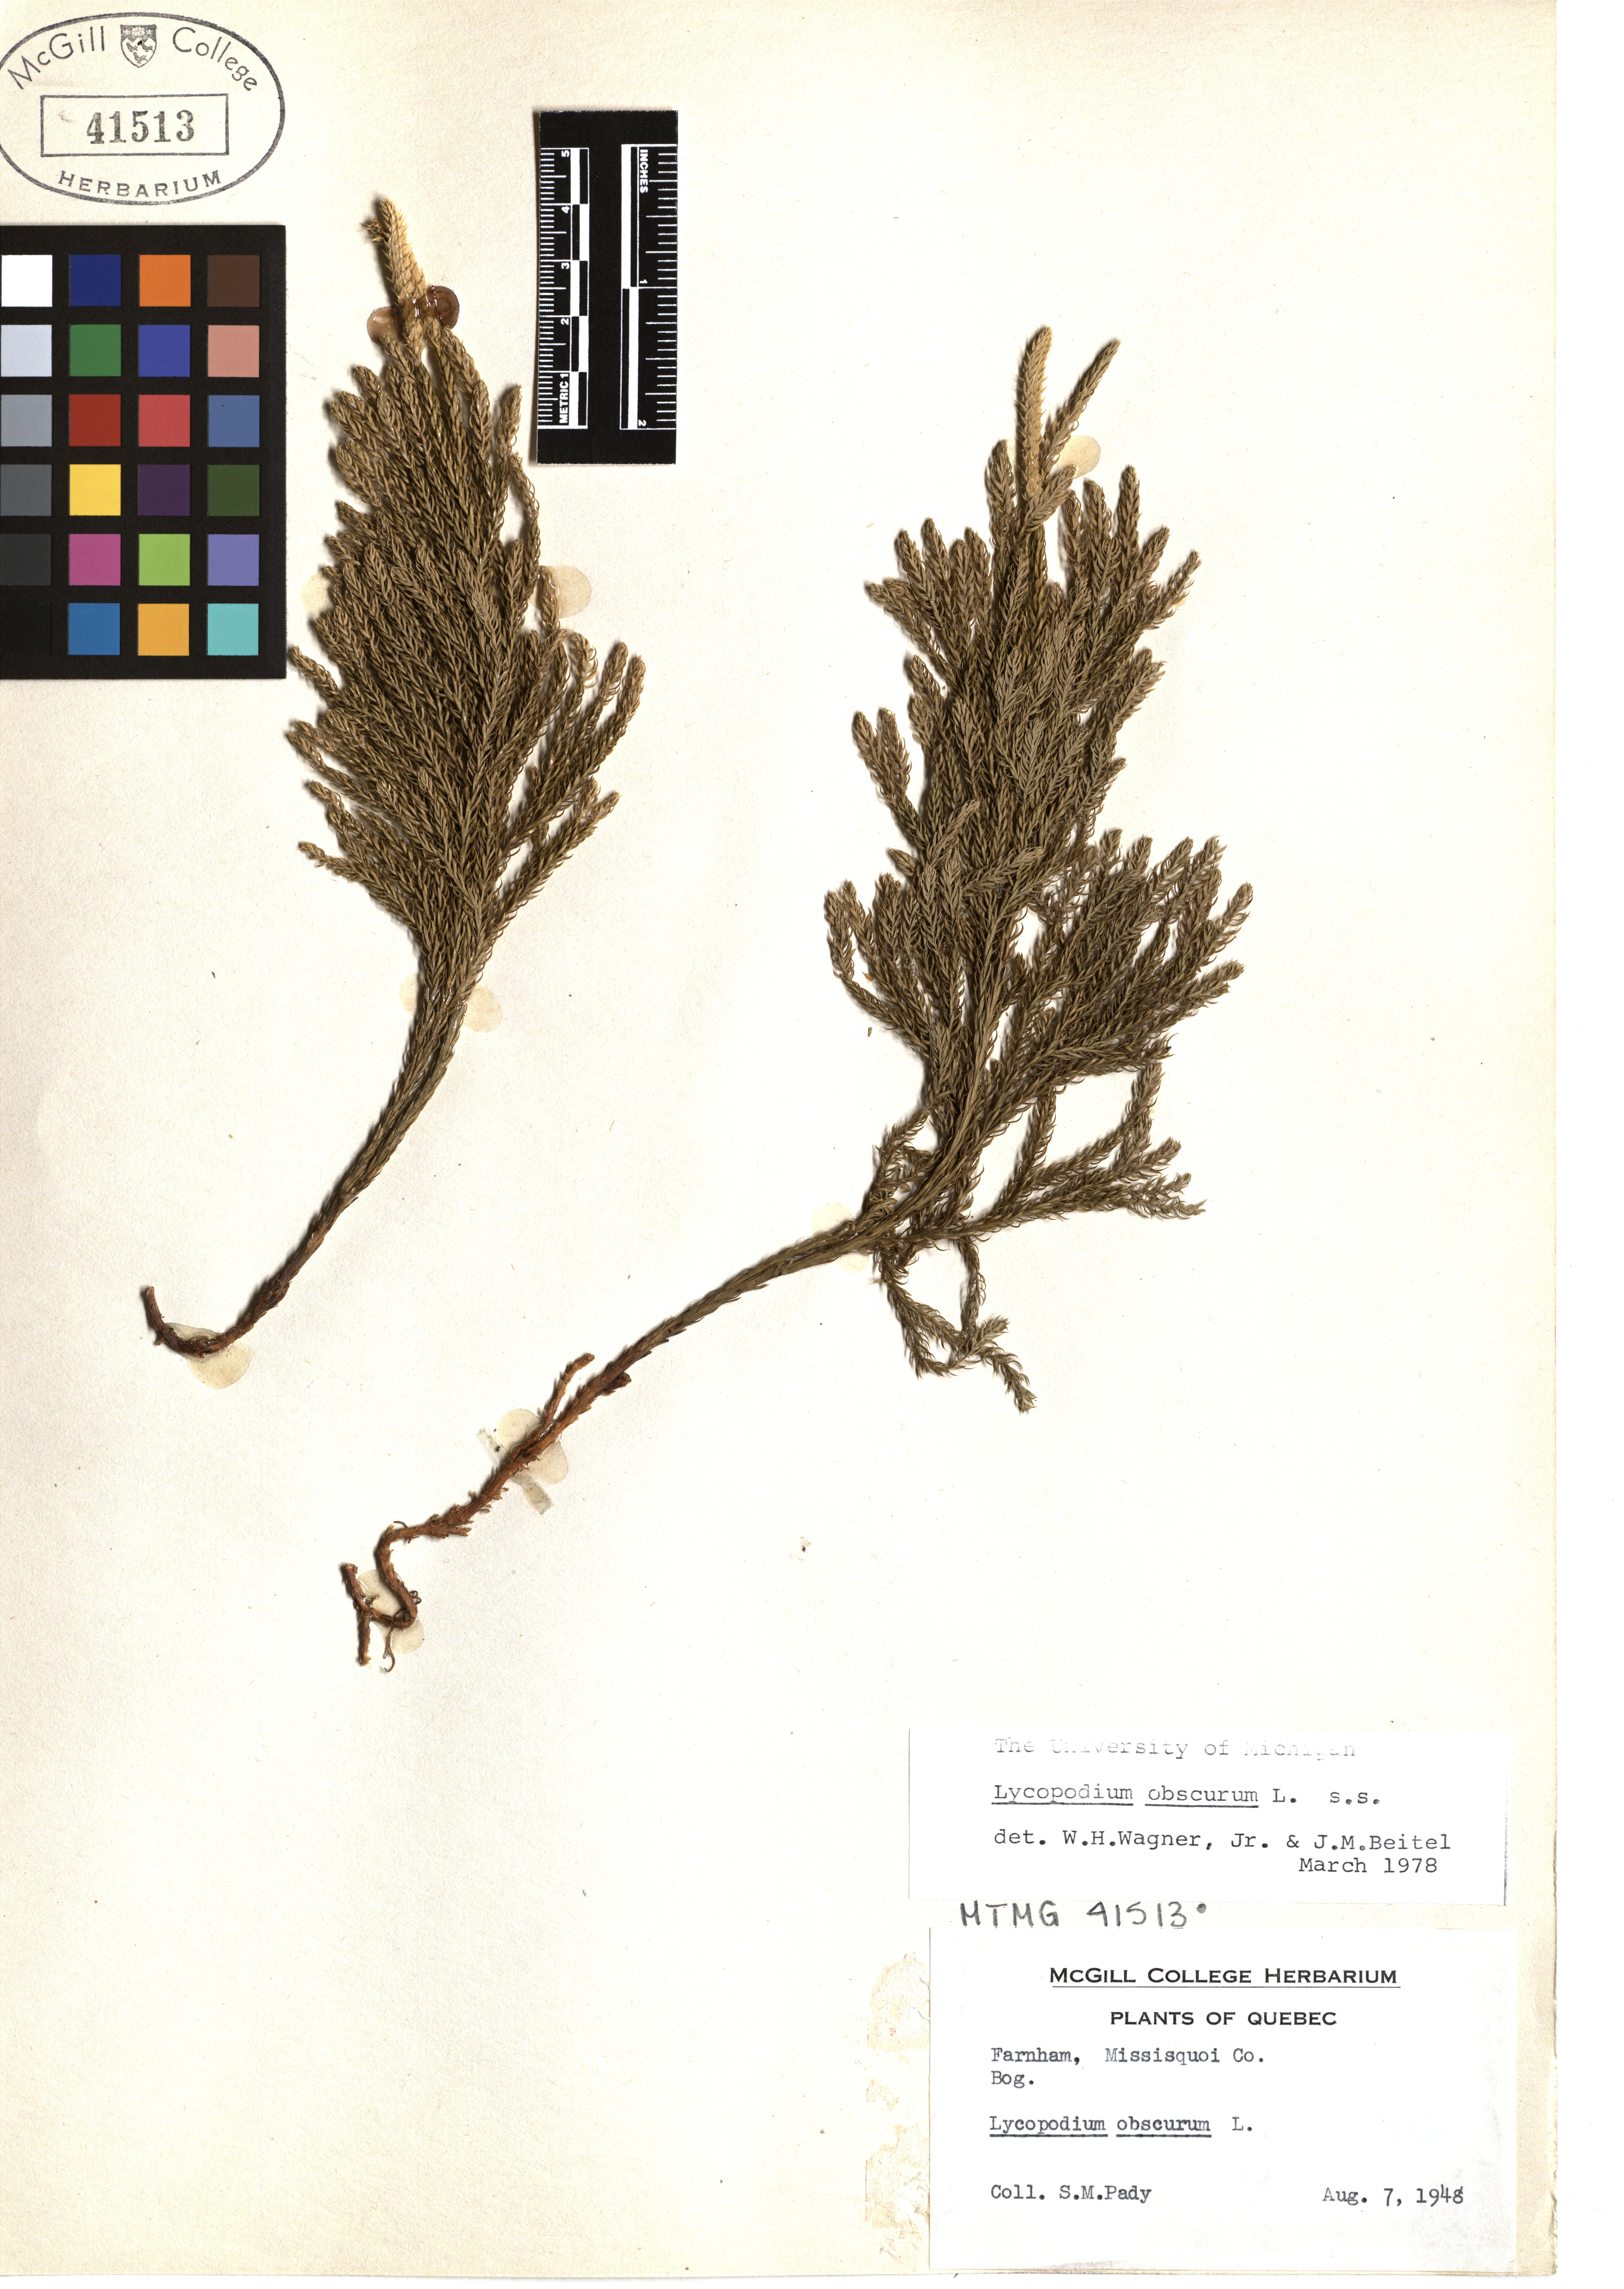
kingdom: Plantae
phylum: Tracheophyta
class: Lycopodiopsida
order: Lycopodiales
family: Lycopodiaceae
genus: Dendrolycopodium
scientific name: Dendrolycopodium obscurum
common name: Common ground-pine
